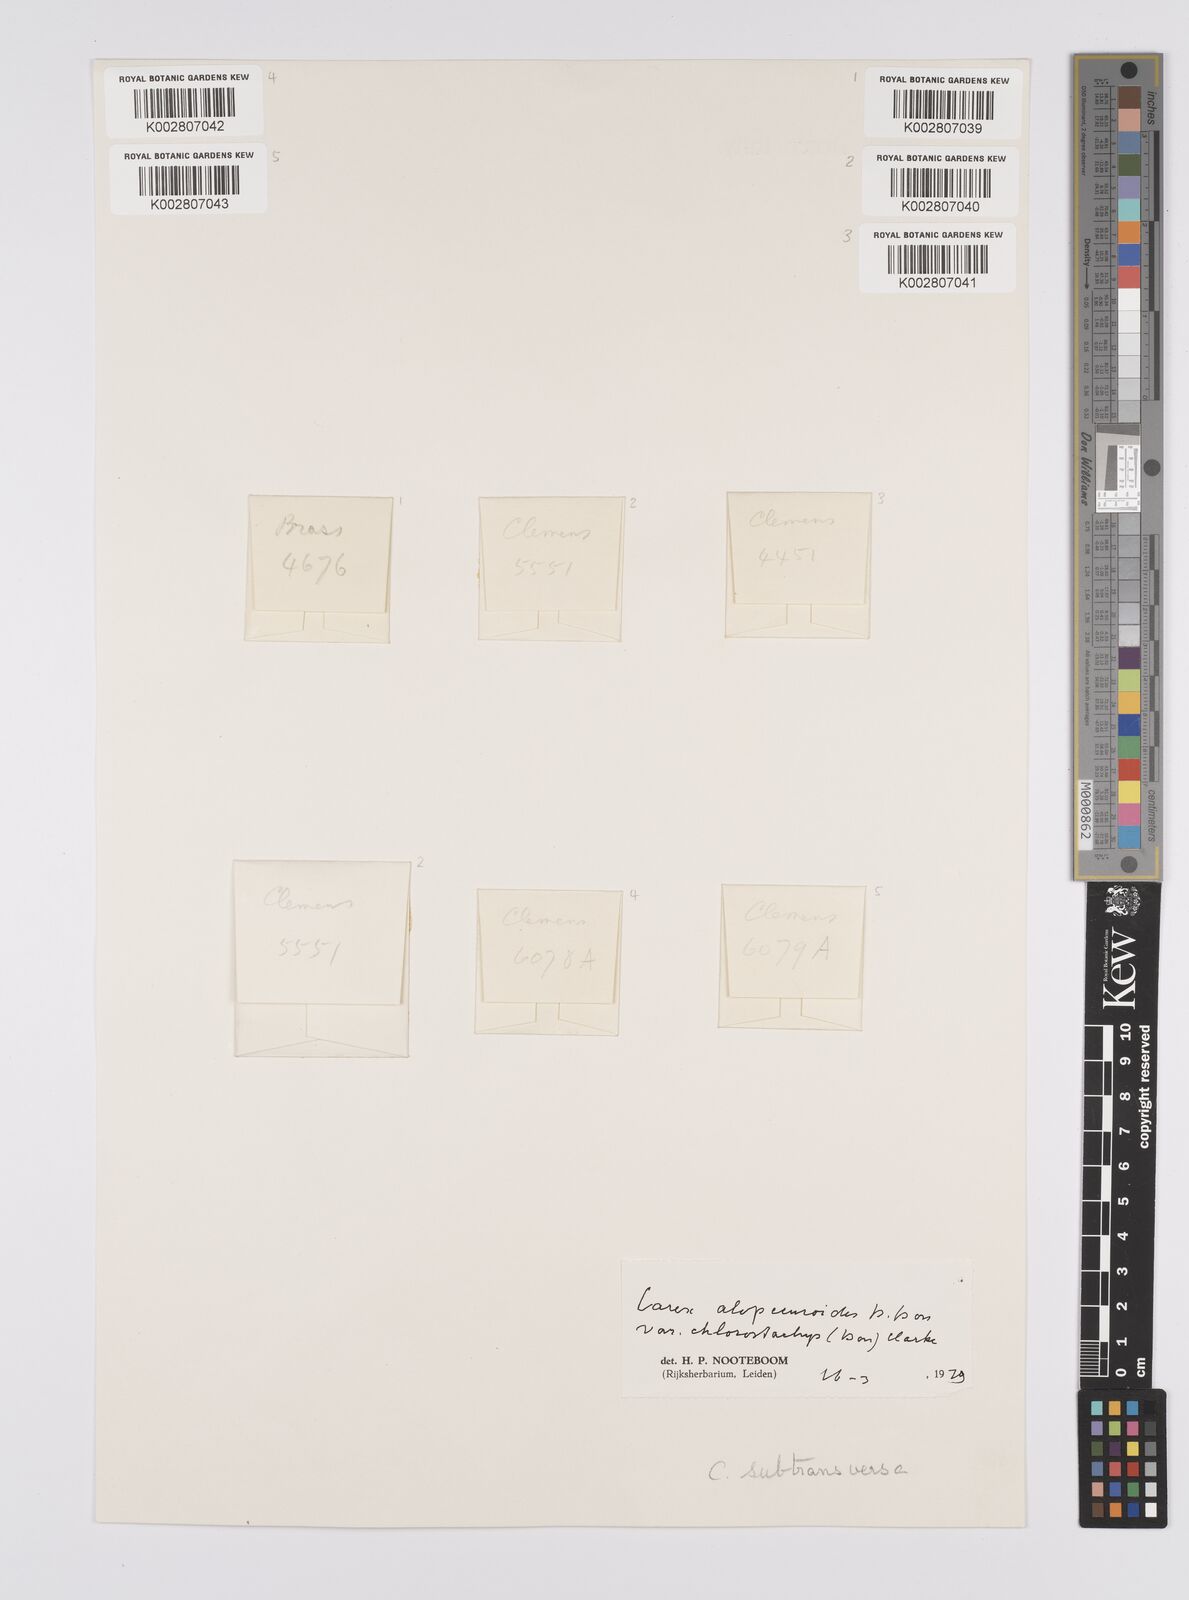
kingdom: Plantae
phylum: Tracheophyta
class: Liliopsida
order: Poales
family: Cyperaceae
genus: Carex
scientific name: Carex alopecuroides
